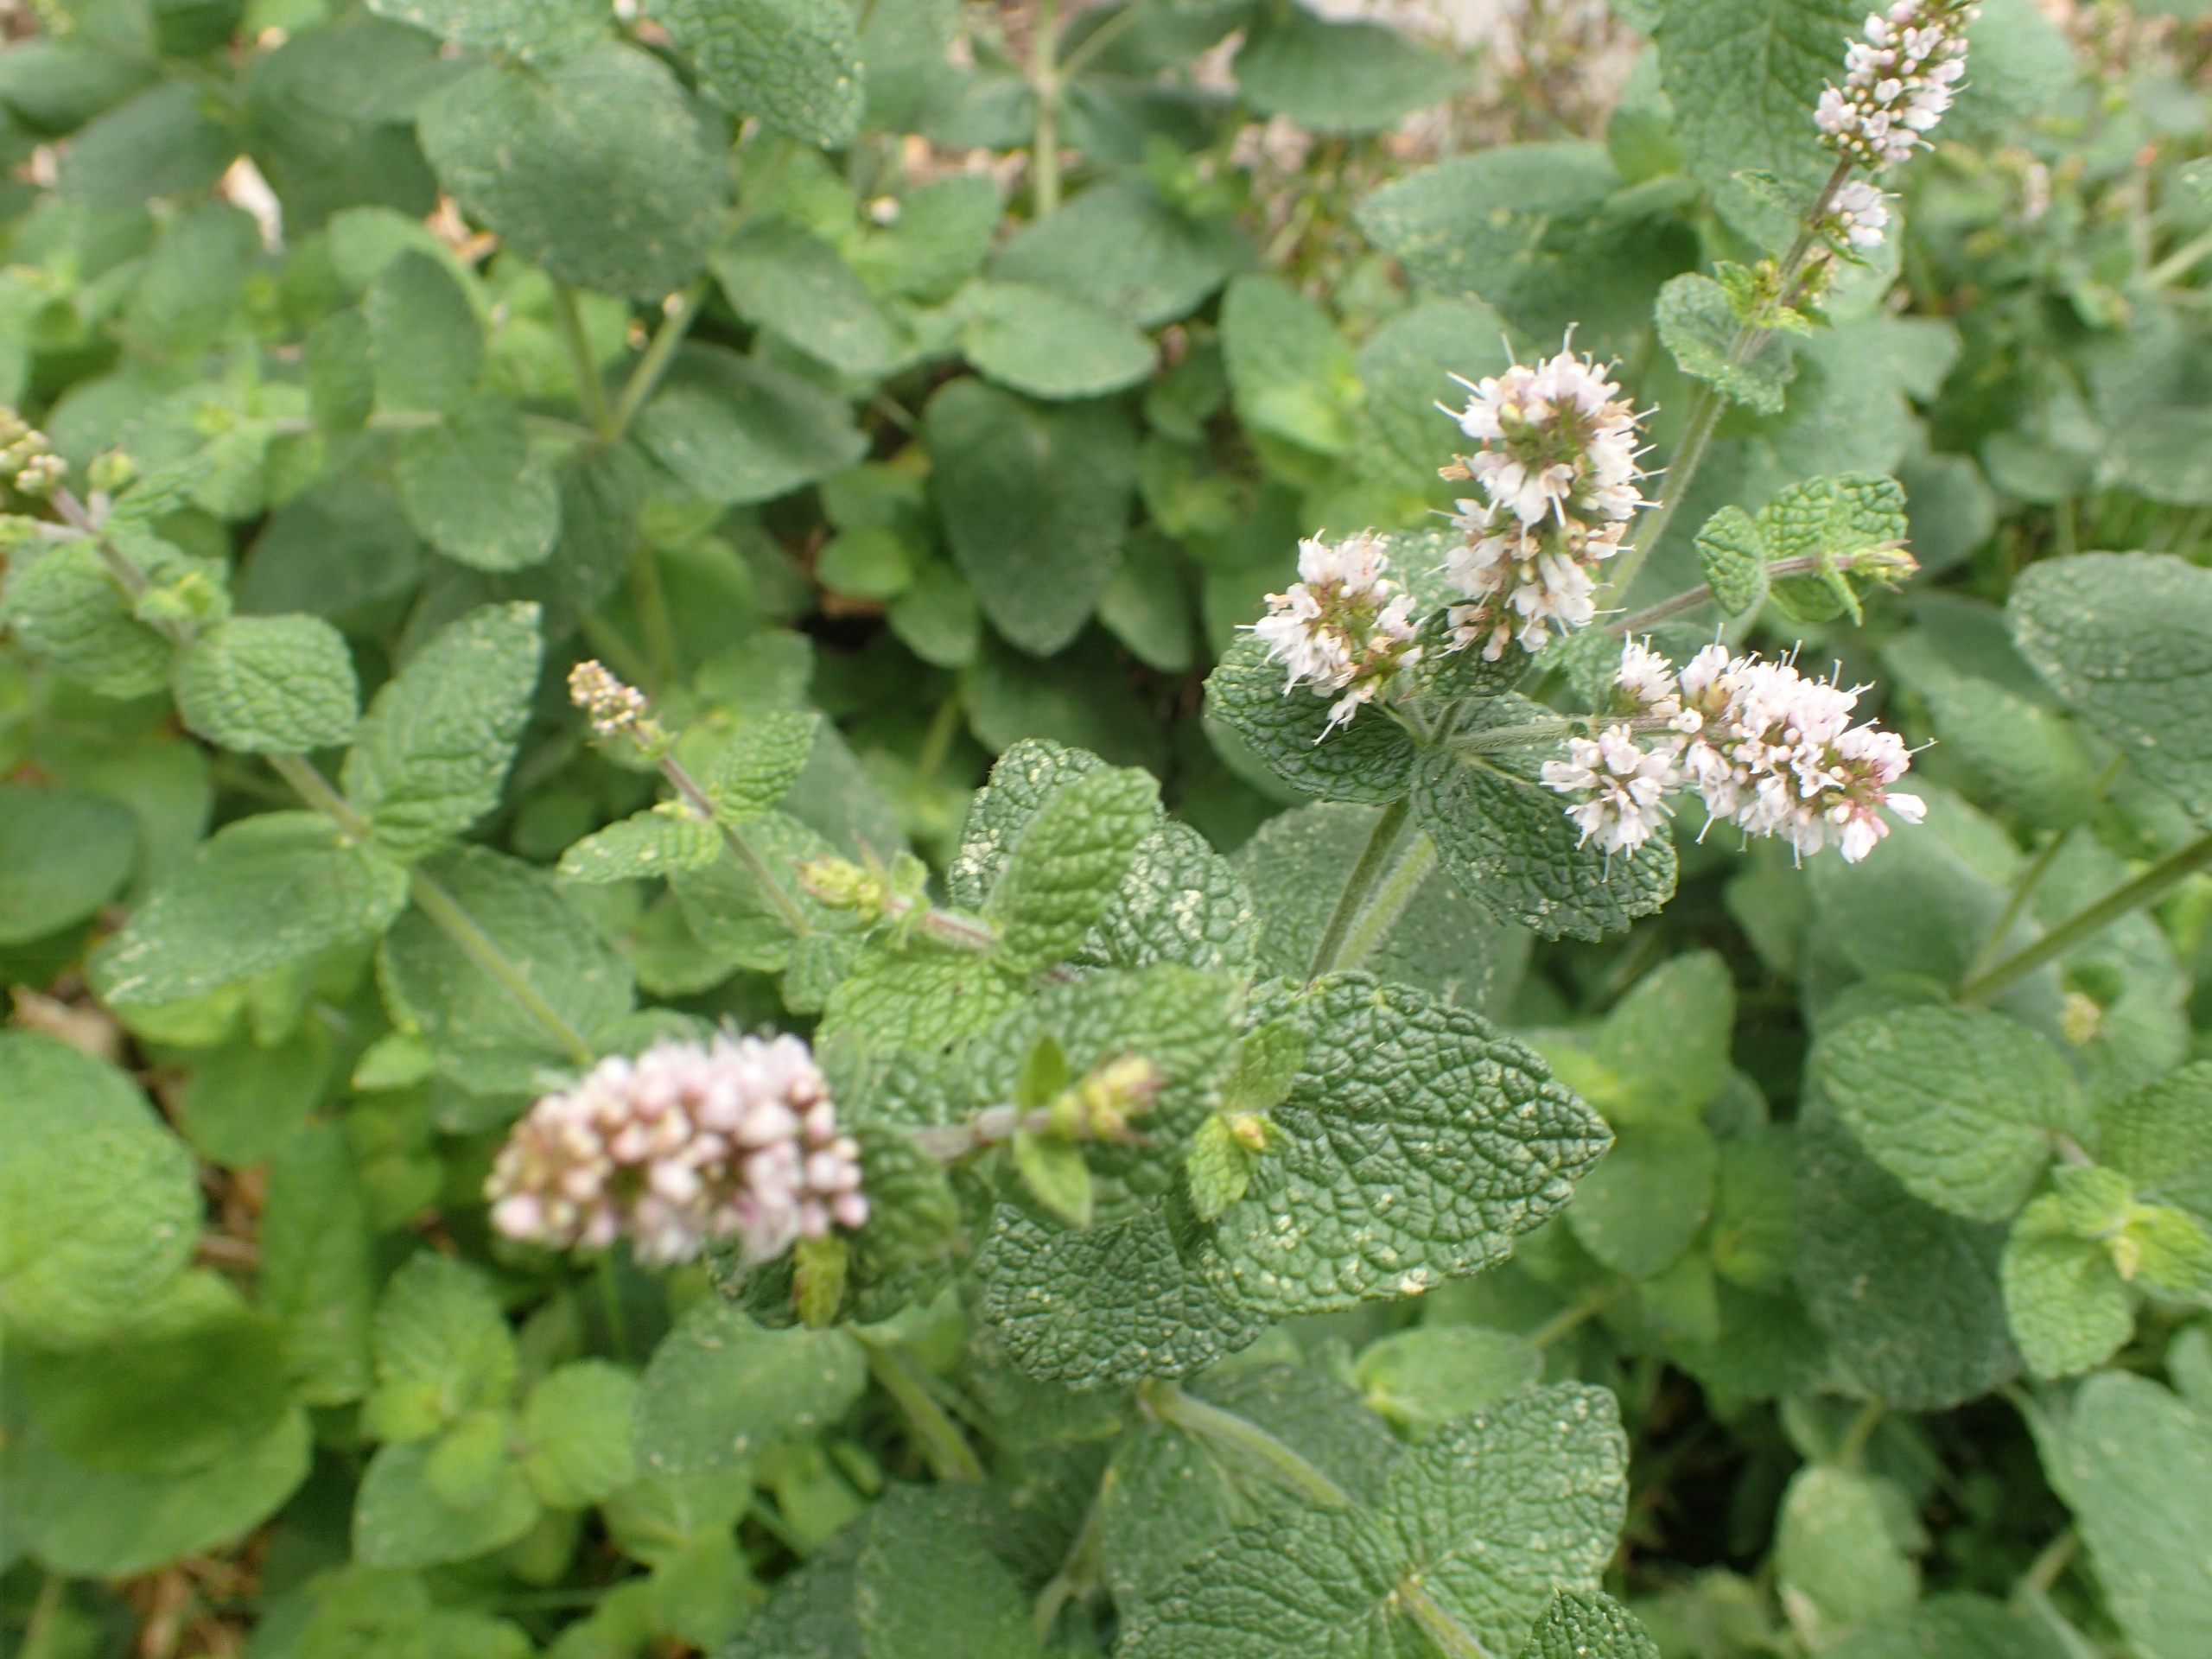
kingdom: Plantae
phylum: Tracheophyta
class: Magnoliopsida
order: Lamiales
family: Lamiaceae
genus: Mentha
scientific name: Mentha suaveolens
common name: Rundbladet mynte
